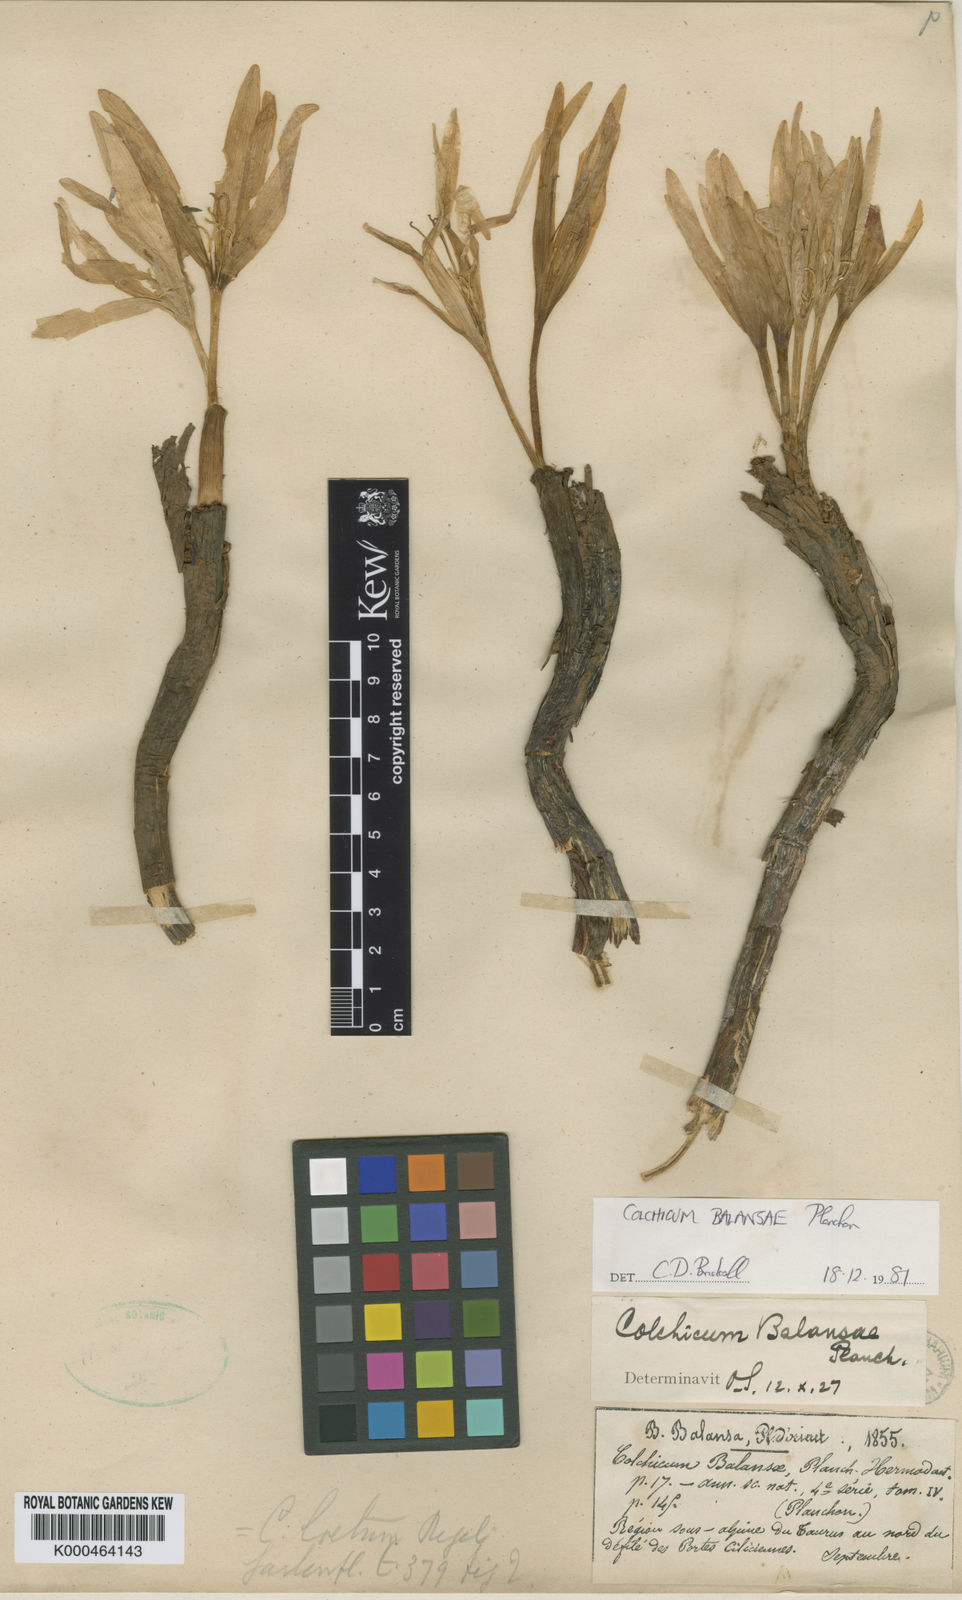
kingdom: Plantae
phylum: Tracheophyta
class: Liliopsida
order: Liliales
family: Colchicaceae
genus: Colchicum
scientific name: Colchicum balansae
